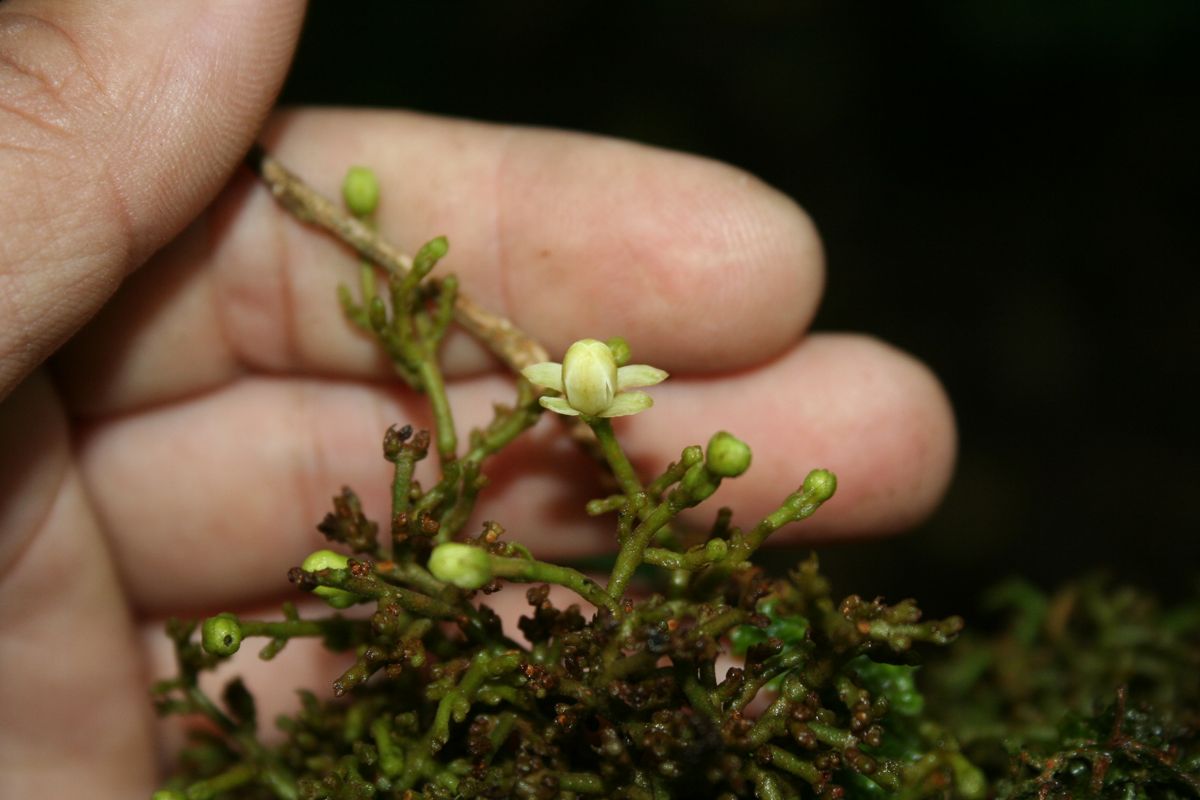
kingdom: Plantae
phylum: Tracheophyta
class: Magnoliopsida
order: Santalales
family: Loranthaceae
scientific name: Loranthaceae
